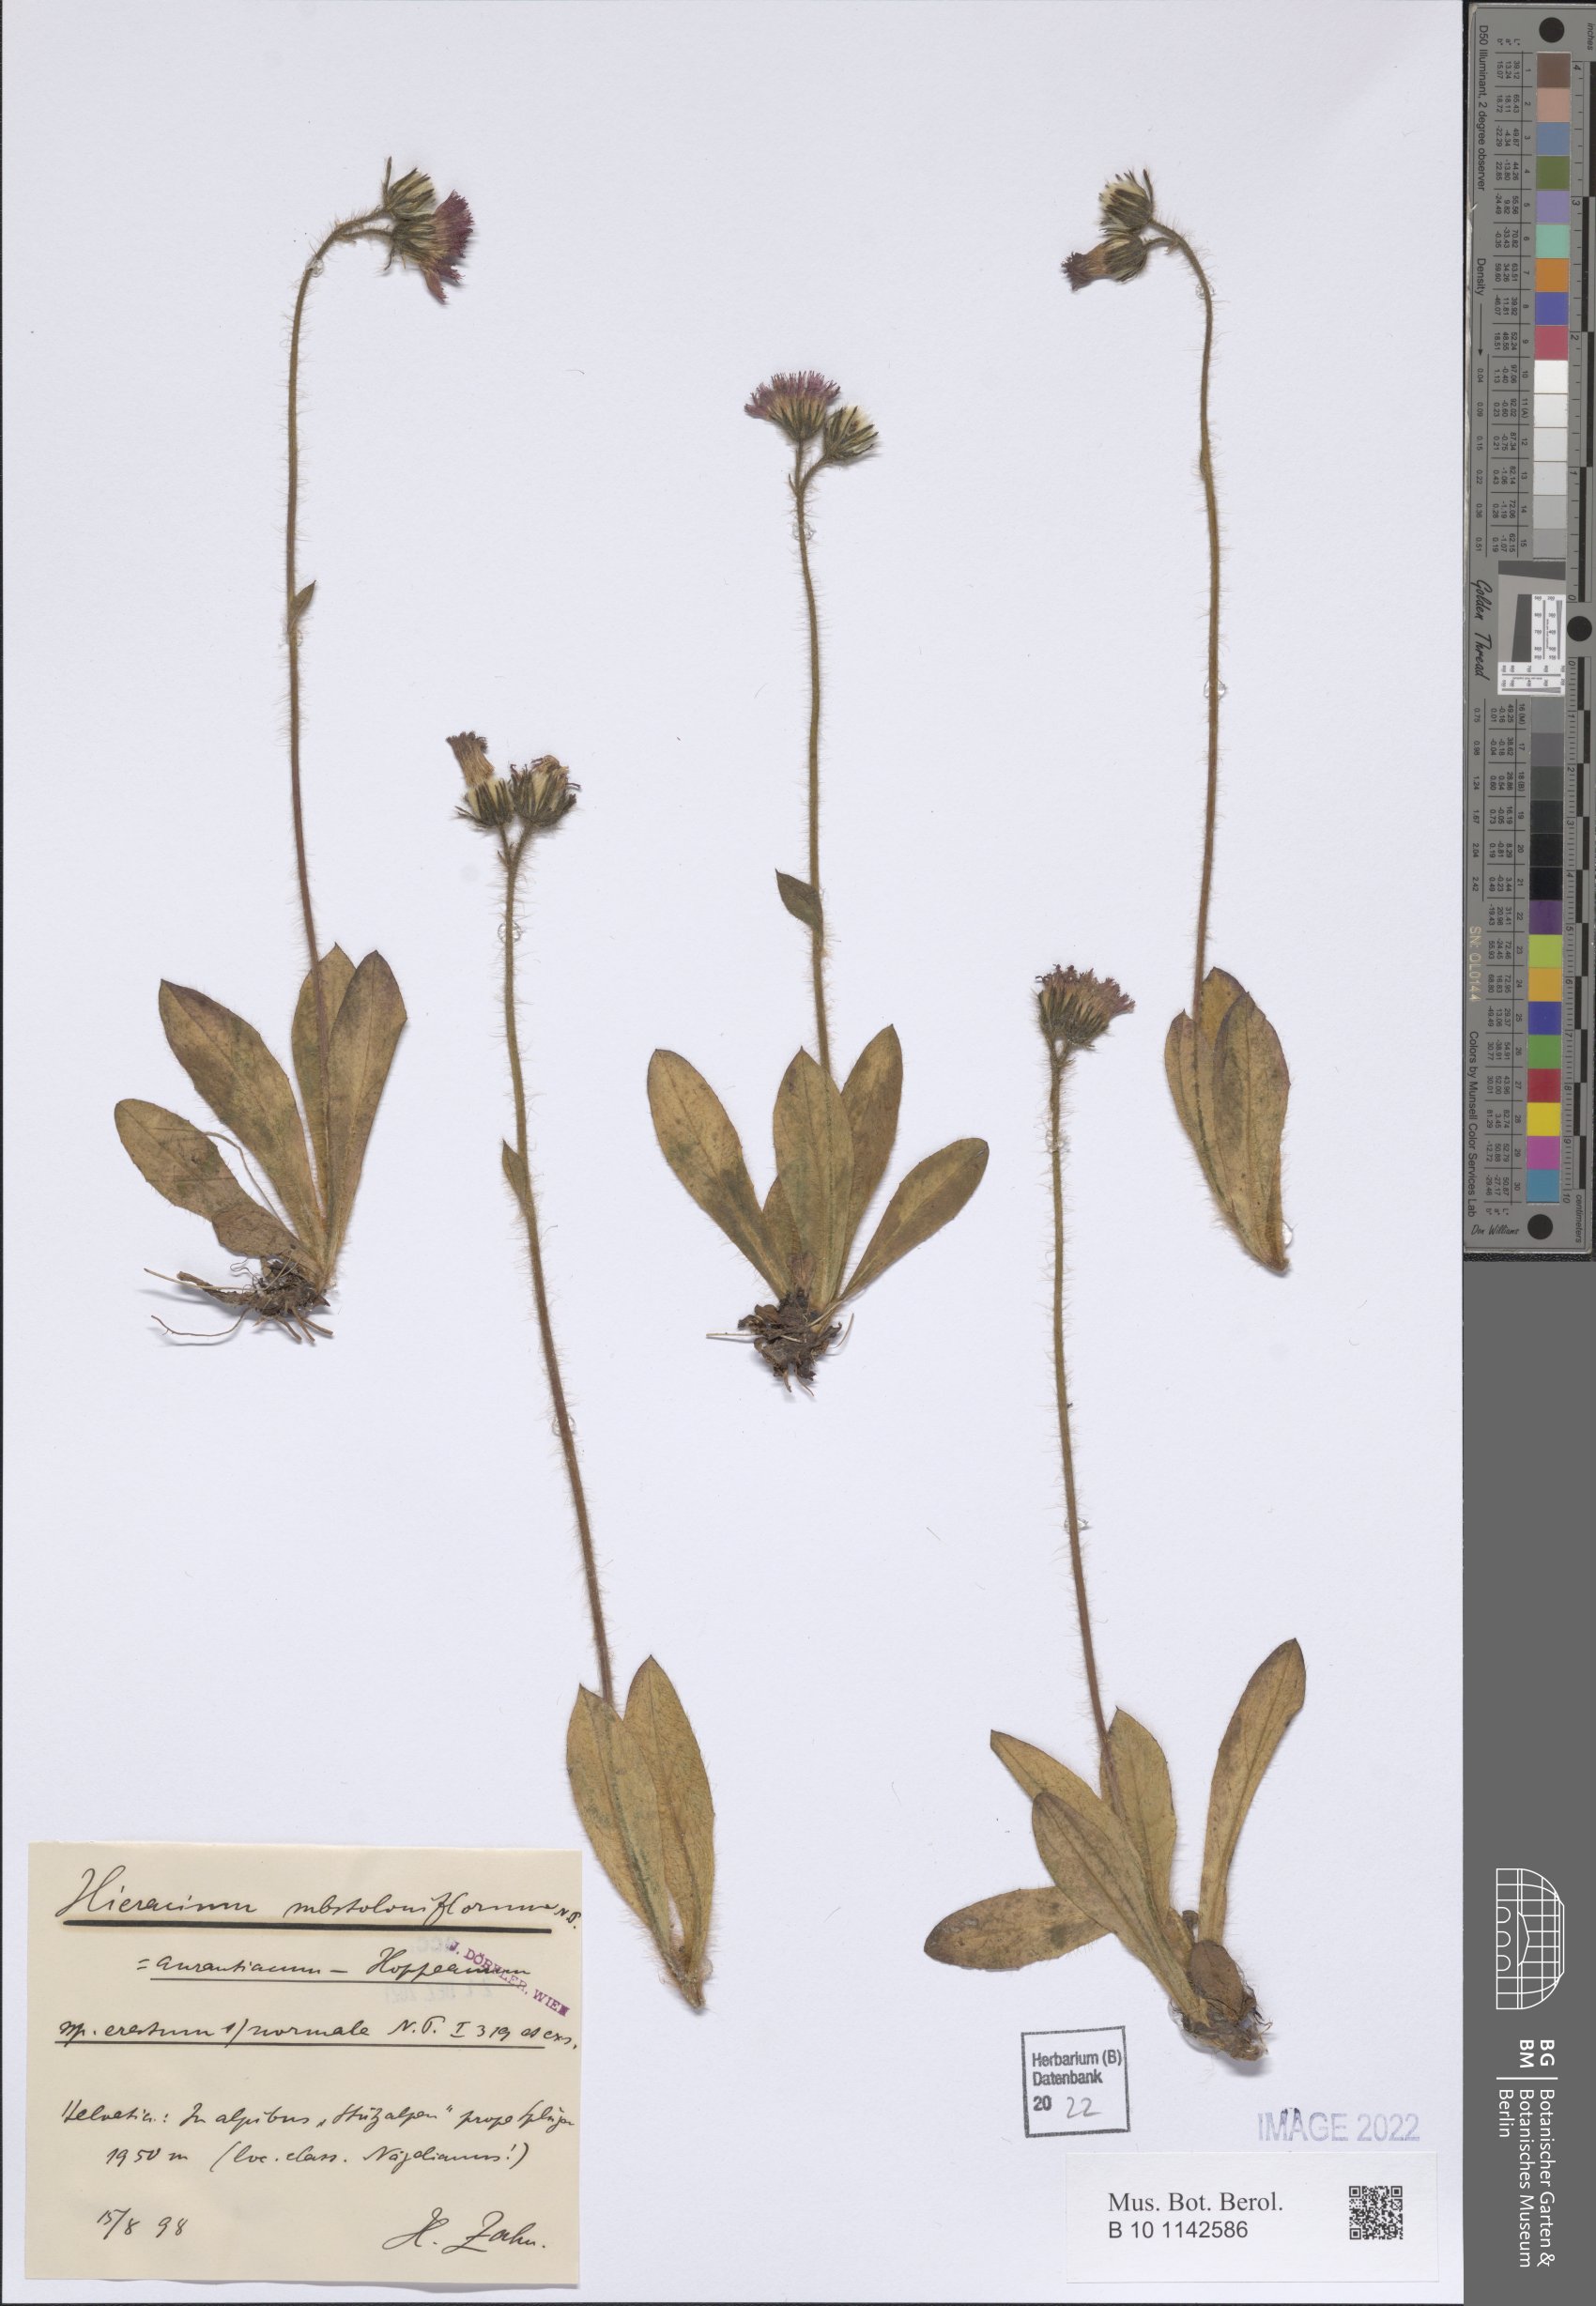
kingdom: Plantae
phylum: Tracheophyta
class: Magnoliopsida
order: Asterales
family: Asteraceae
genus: Pilosella
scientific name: Pilosella aurantiaca
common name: Fox-and-cubs
